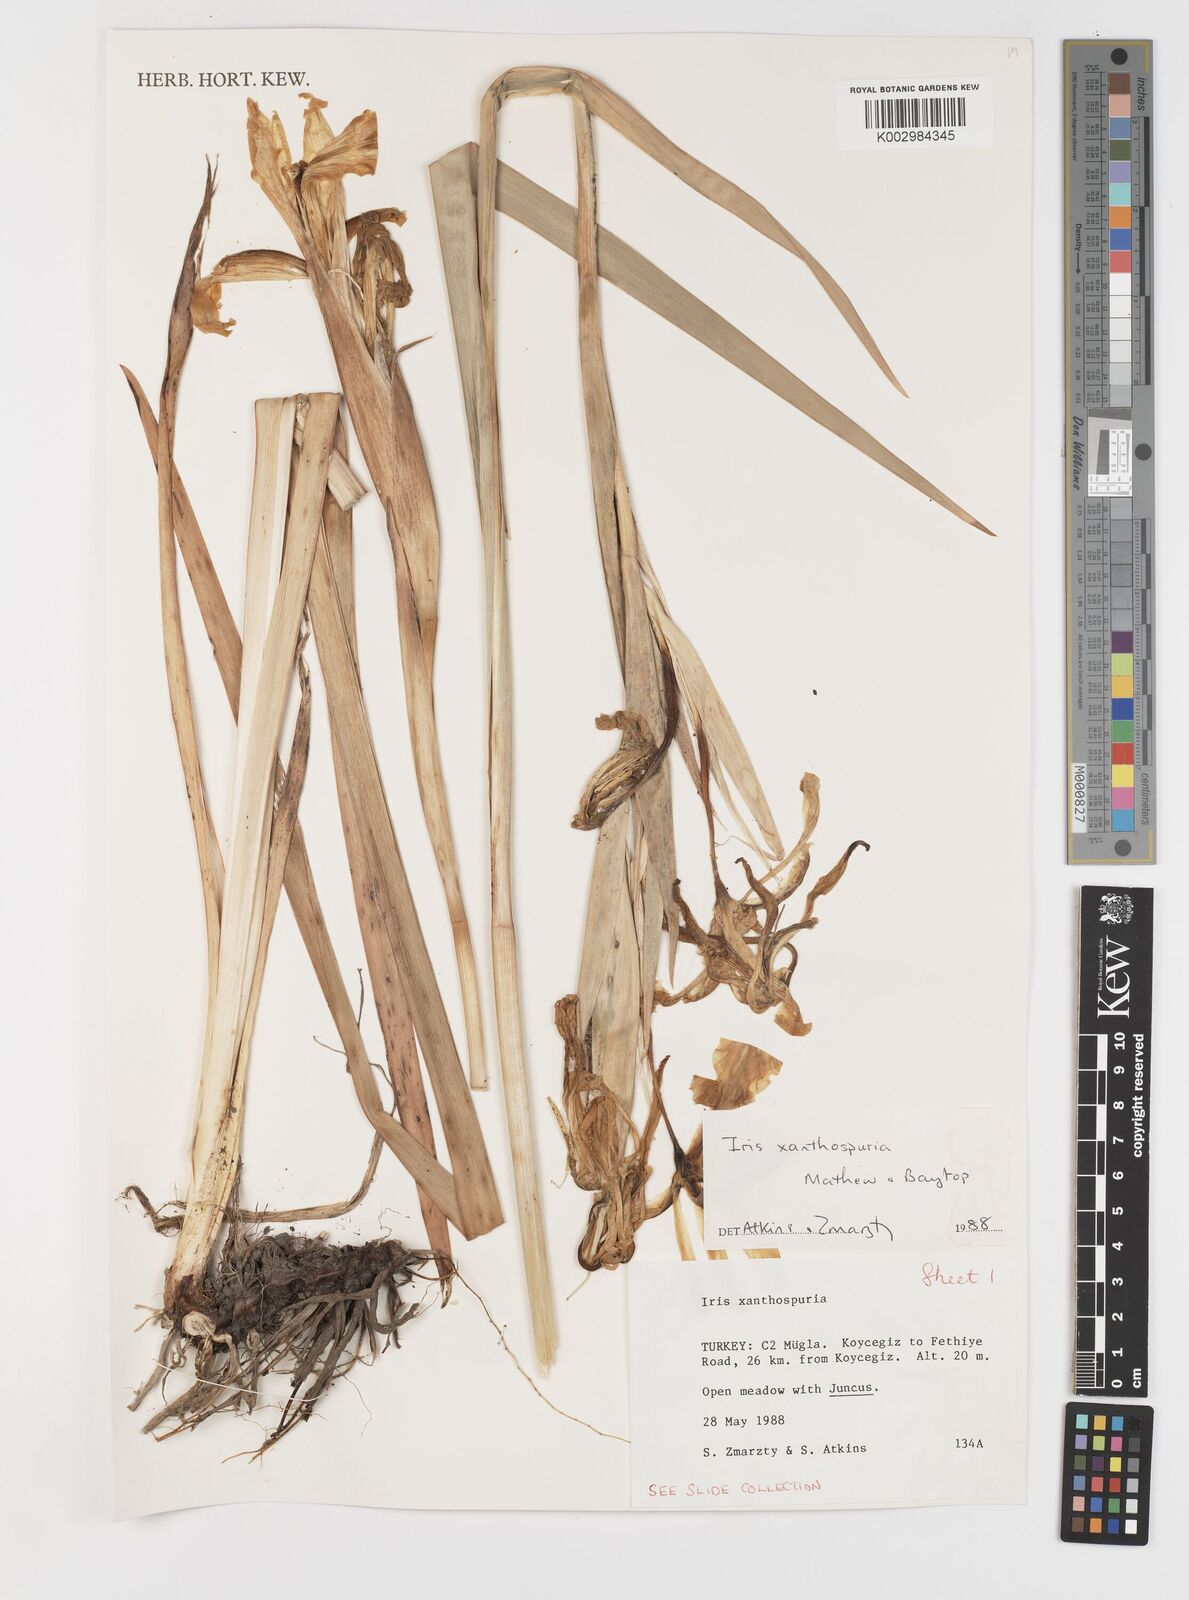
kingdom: Plantae
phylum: Tracheophyta
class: Liliopsida
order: Asparagales
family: Iridaceae
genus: Iris
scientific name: Iris spuria
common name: Blue iris
